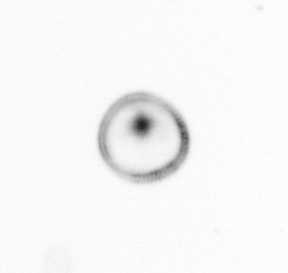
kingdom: Chromista
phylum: Myzozoa
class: Dinophyceae
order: Noctilucales
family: Noctilucaceae
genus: Noctiluca
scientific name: Noctiluca scintillans
